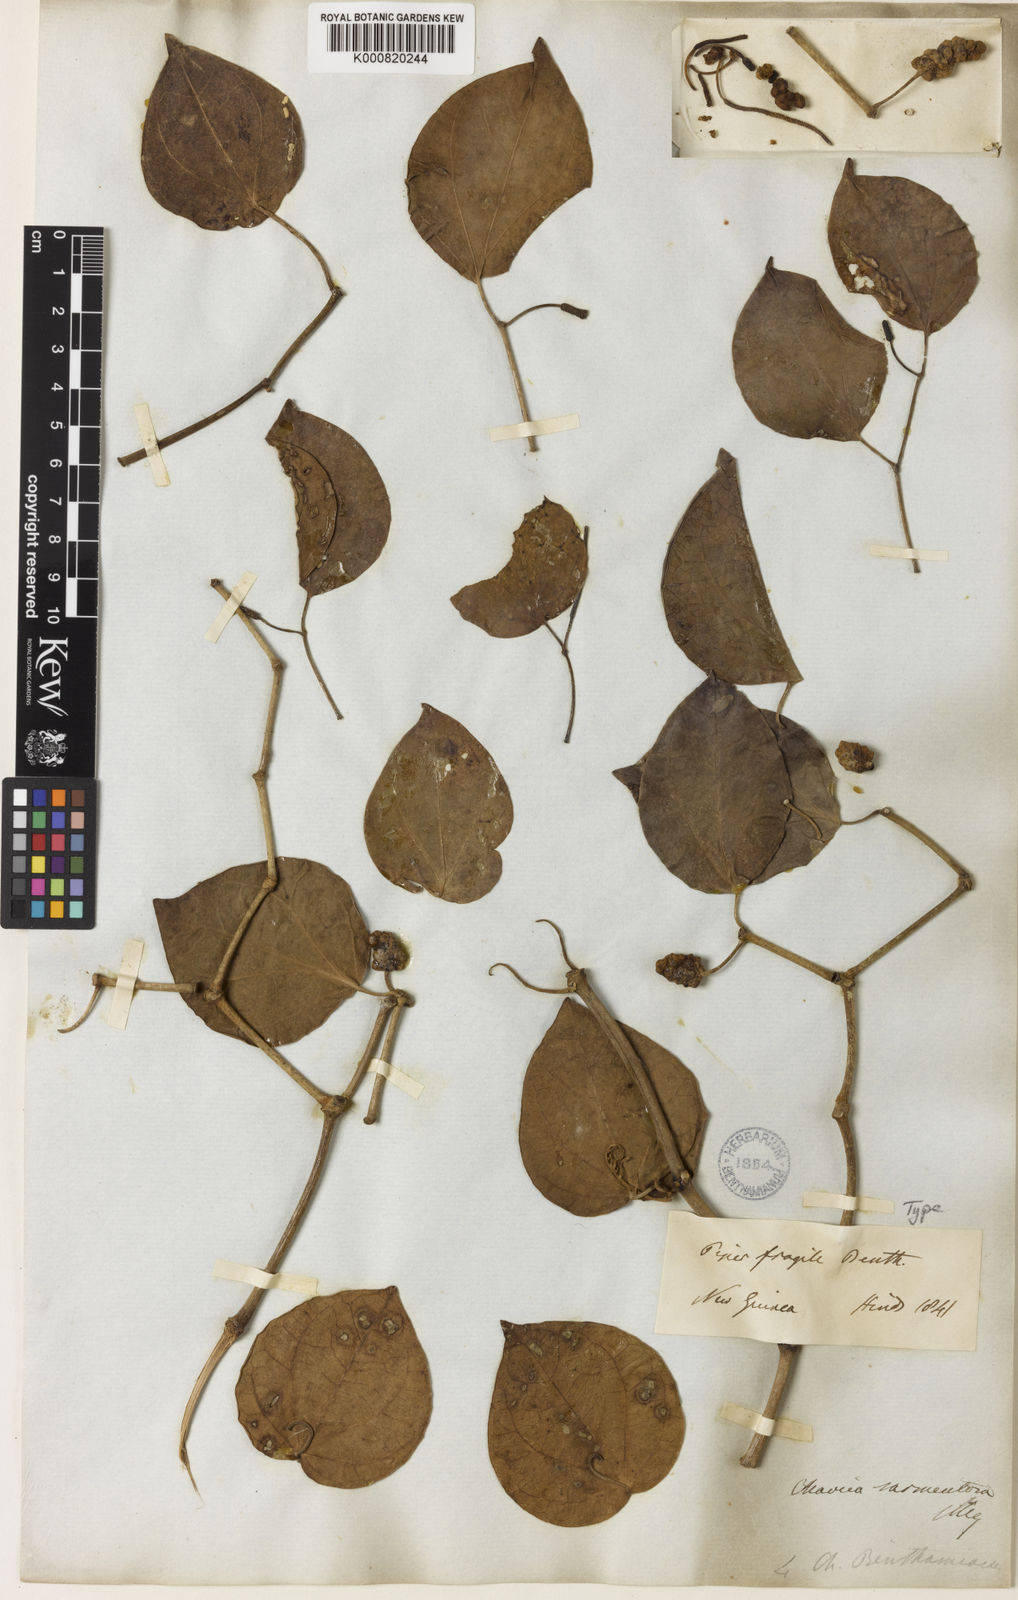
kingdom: Plantae
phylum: Tracheophyta
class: Magnoliopsida
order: Piperales
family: Piperaceae
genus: Piper
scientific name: Piper fragile
